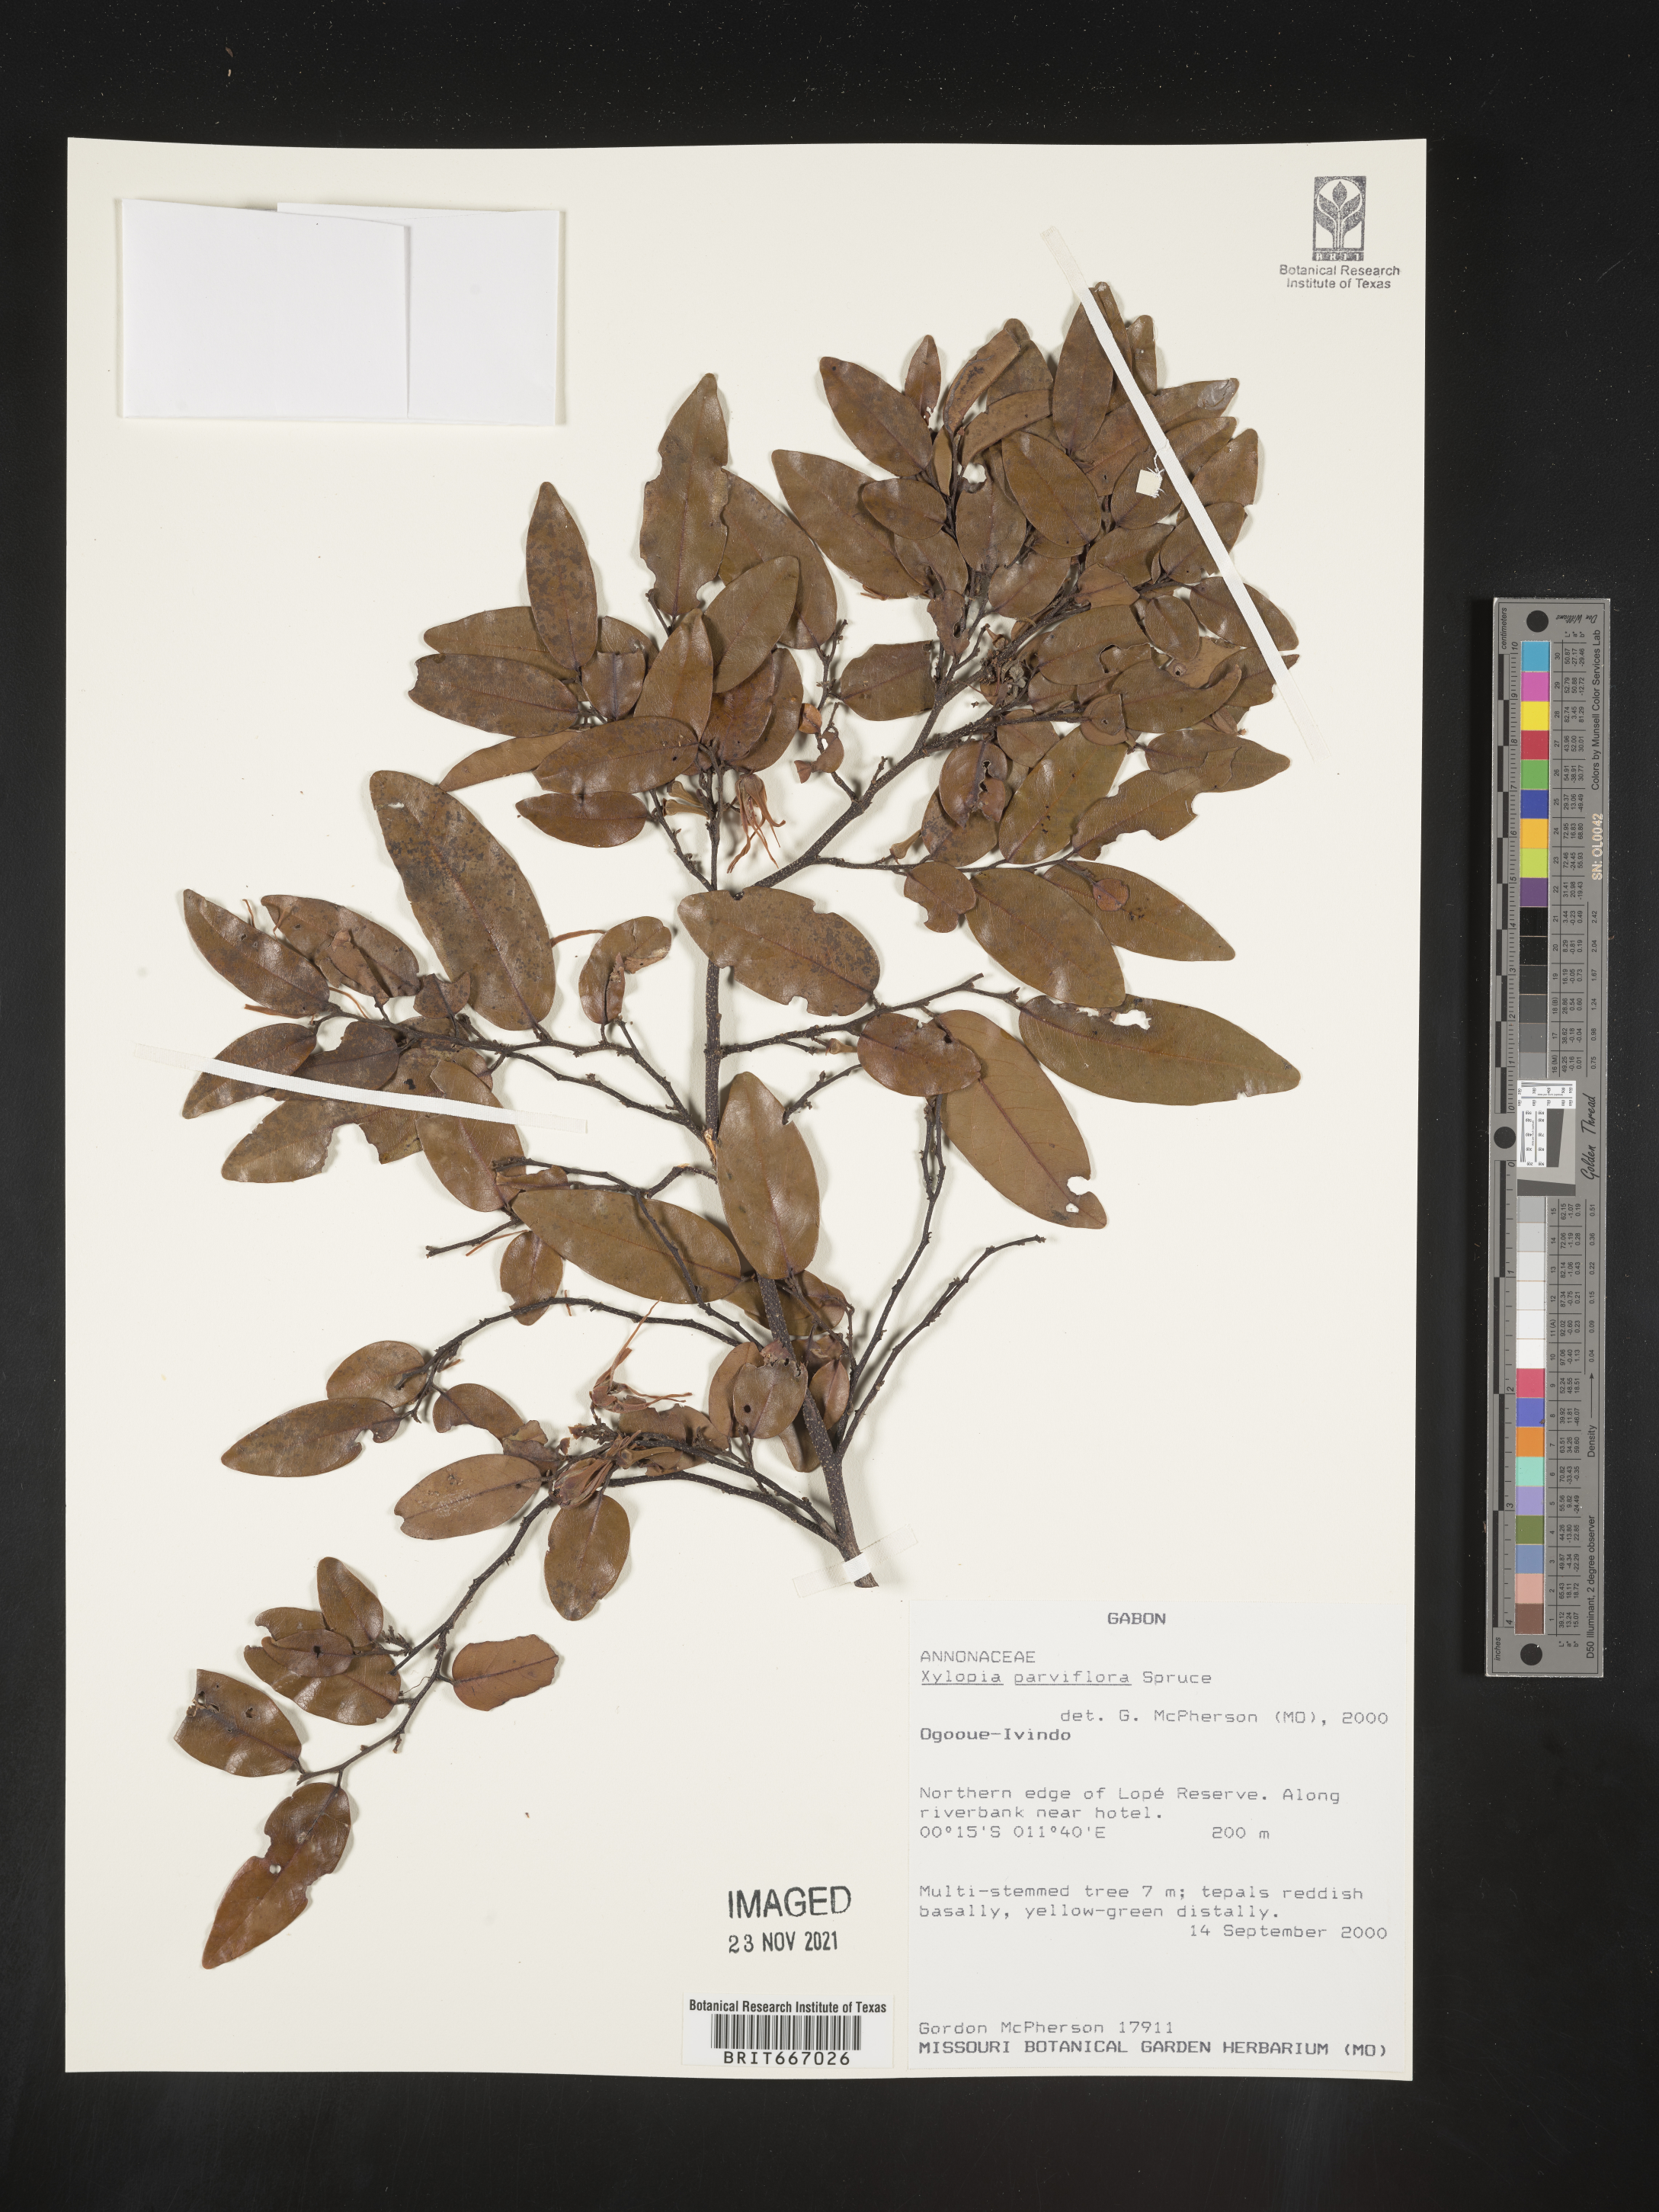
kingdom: Plantae
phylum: Tracheophyta
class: Magnoliopsida
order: Magnoliales
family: Annonaceae
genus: Xylopia
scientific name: Xylopia
